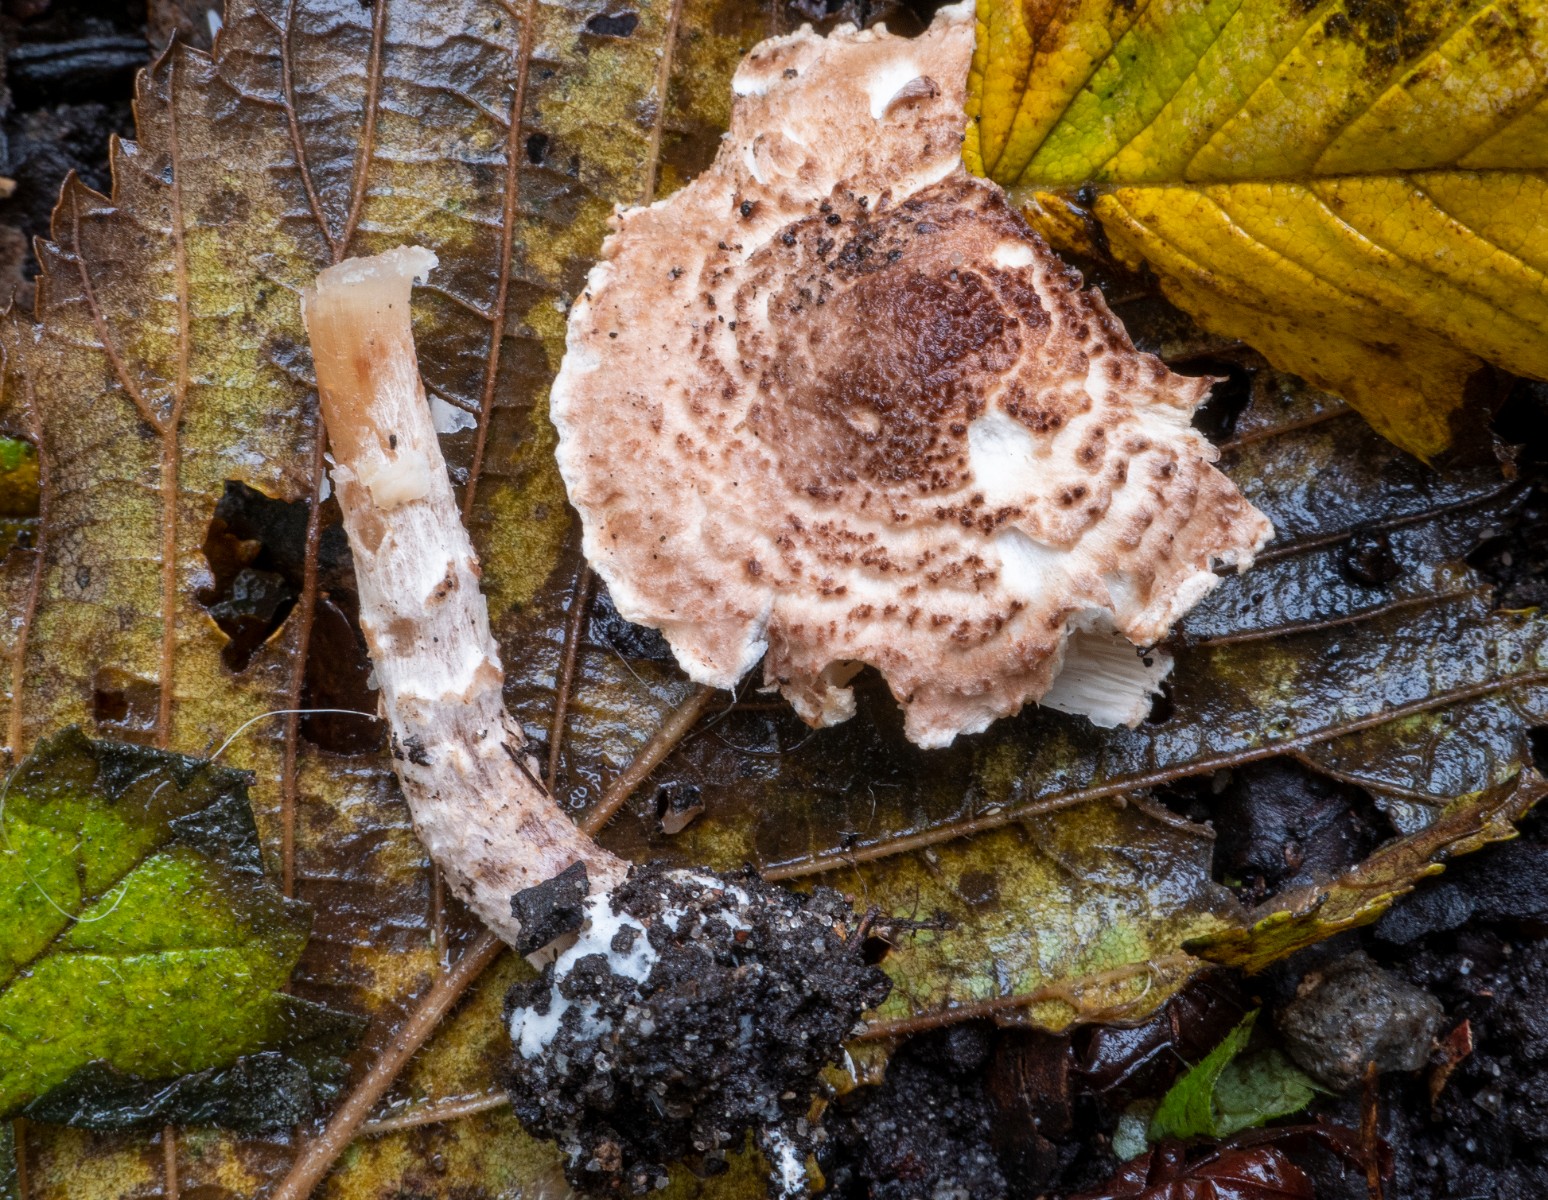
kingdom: Fungi
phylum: Basidiomycota
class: Agaricomycetes
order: Agaricales
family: Agaricaceae
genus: Lepiota
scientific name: Lepiota echinella
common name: finskællet parasolhat
